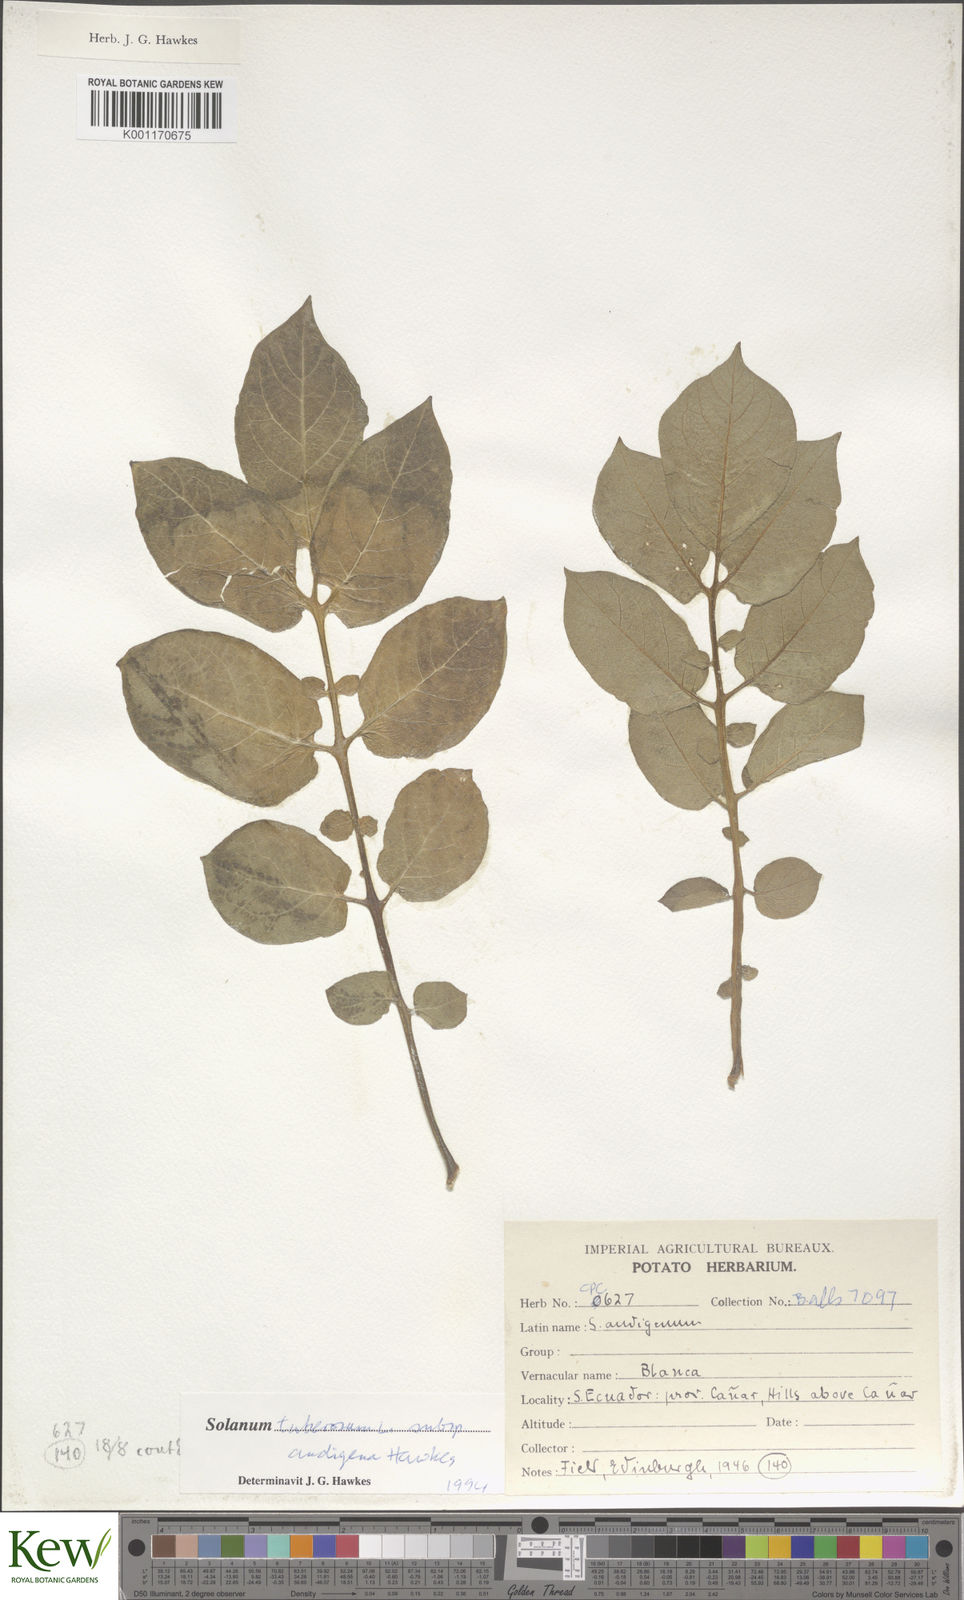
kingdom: Plantae
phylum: Tracheophyta
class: Magnoliopsida
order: Solanales
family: Solanaceae
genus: Solanum
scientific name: Solanum tuberosum
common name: Potato
